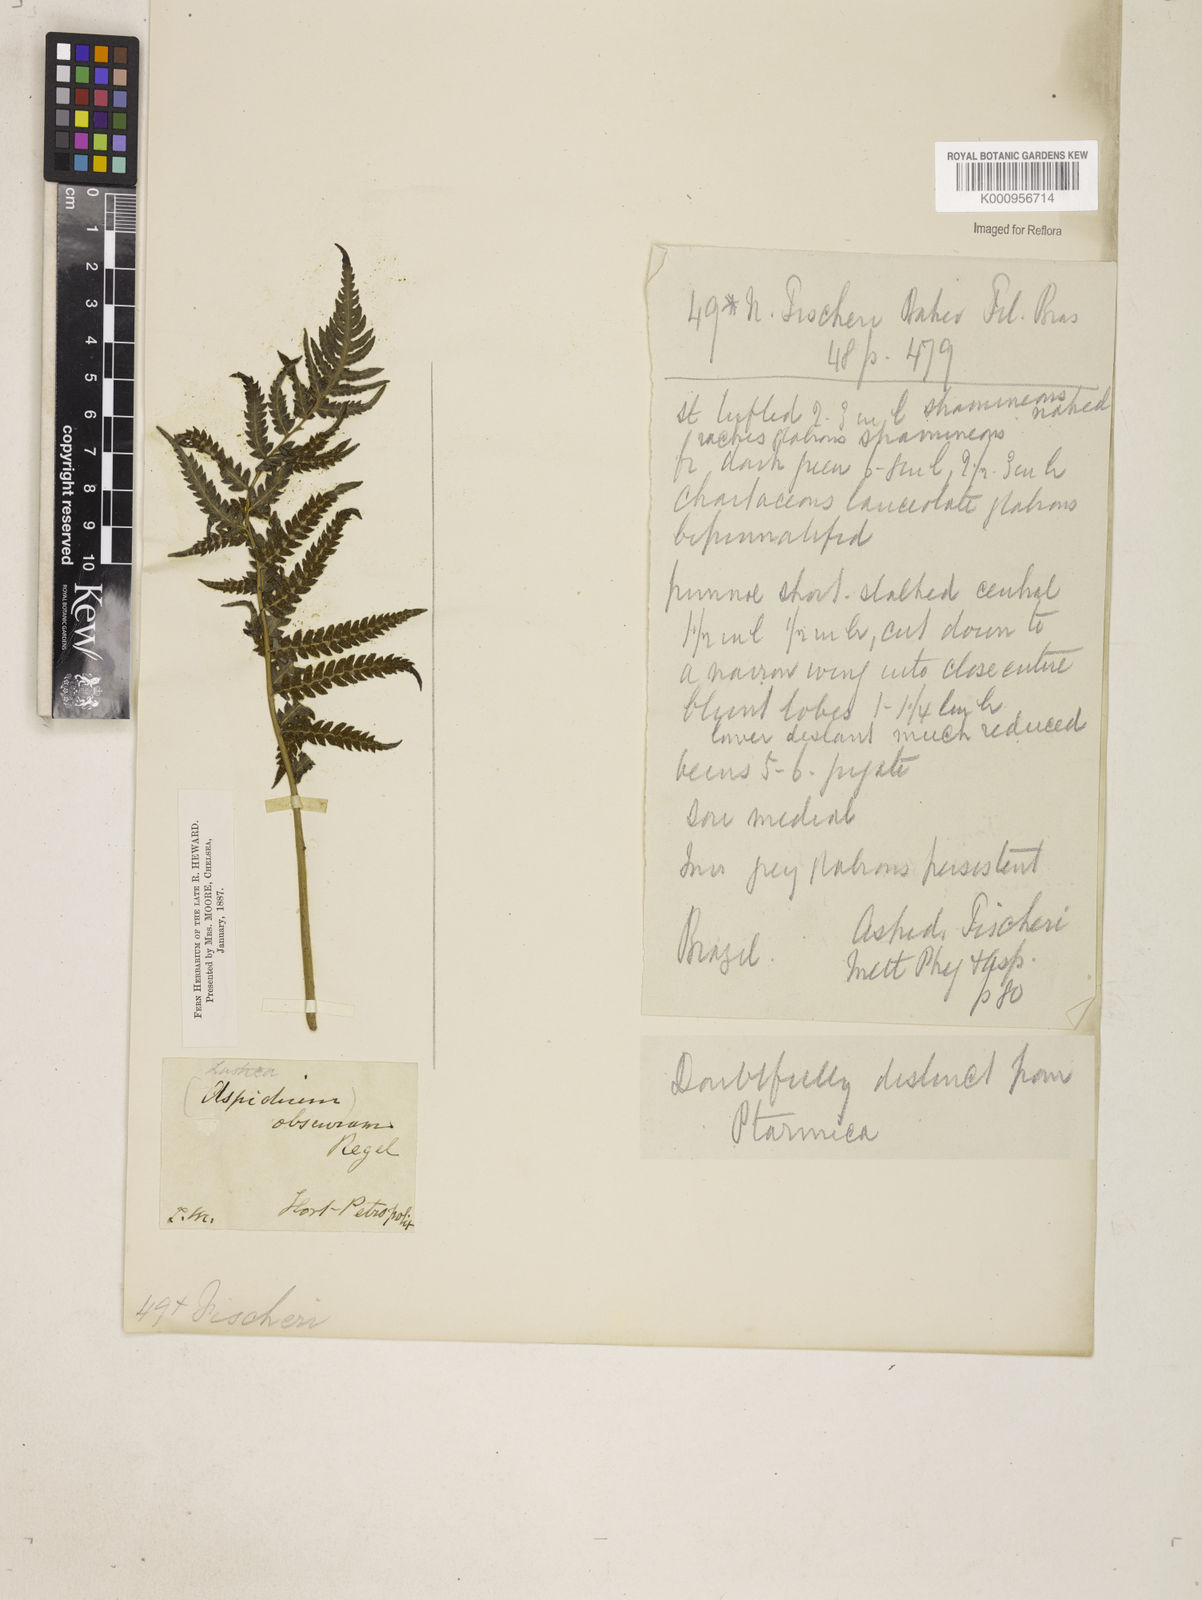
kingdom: Plantae
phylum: Tracheophyta
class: Polypodiopsida
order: Polypodiales
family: Thelypteridaceae
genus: Amauropelta
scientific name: Amauropelta ptarmica
